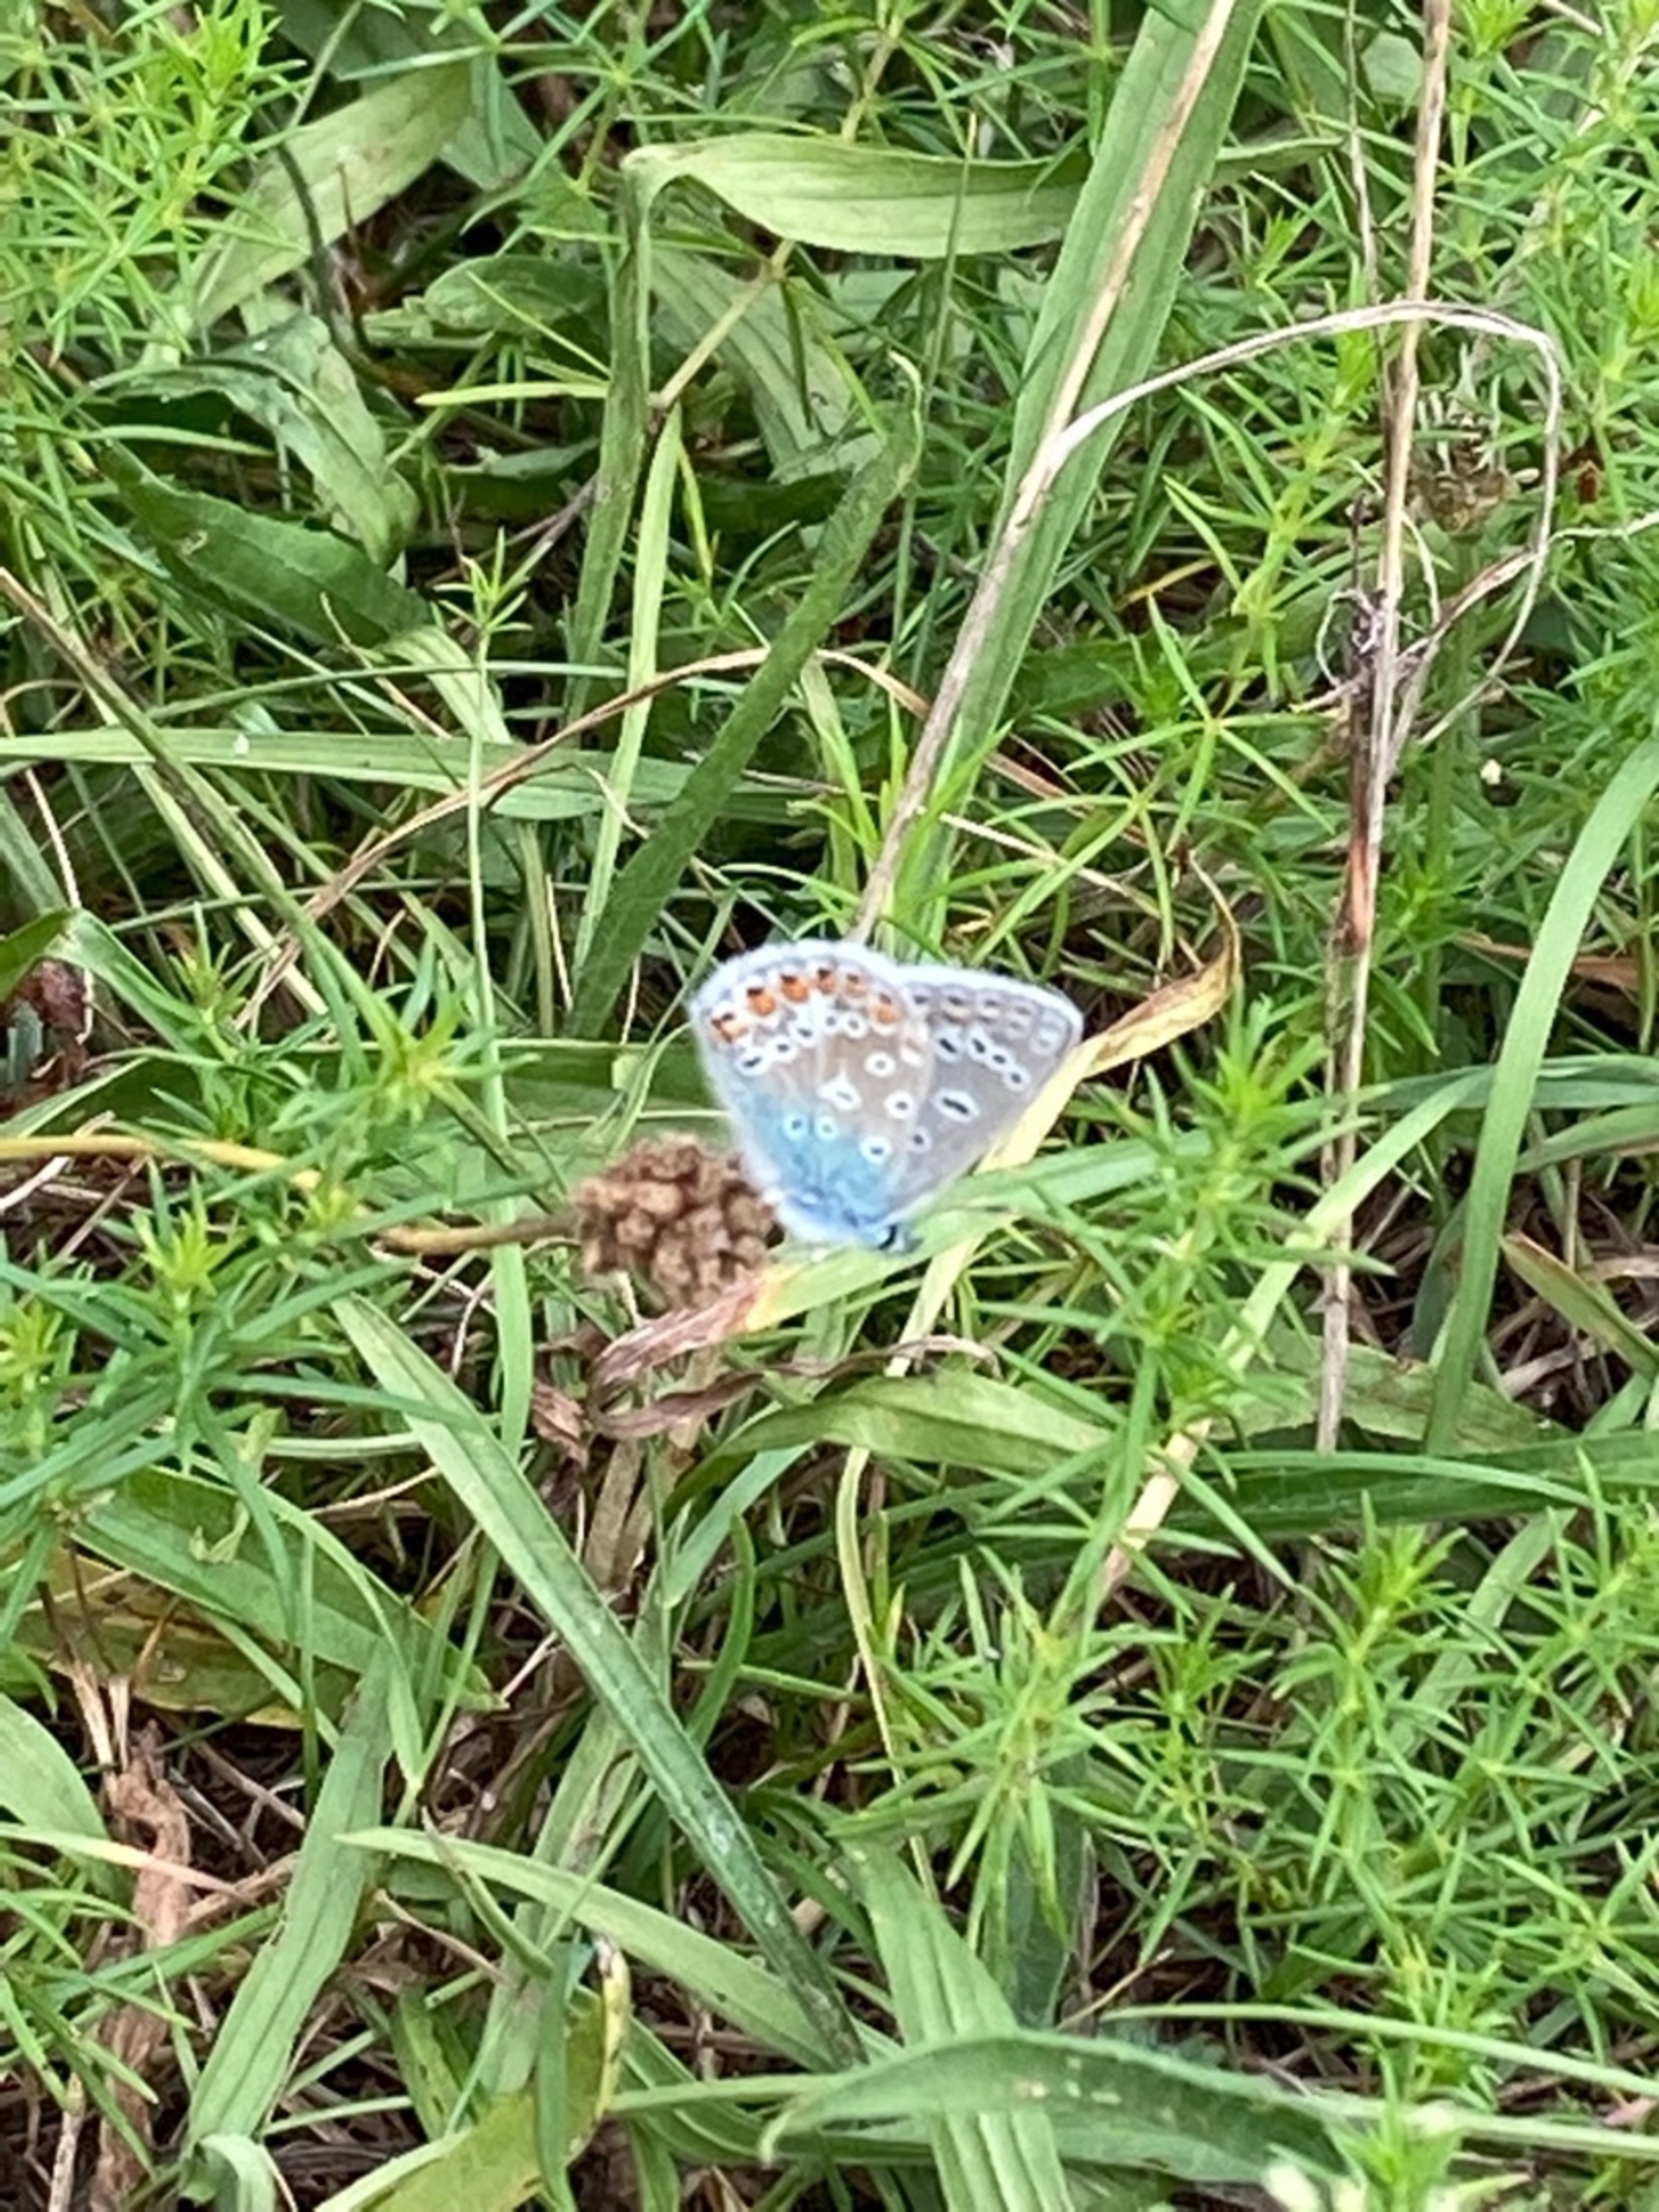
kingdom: Animalia
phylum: Arthropoda
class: Insecta
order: Lepidoptera
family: Lycaenidae
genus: Polyommatus
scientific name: Polyommatus icarus
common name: Almindelig blåfugl
